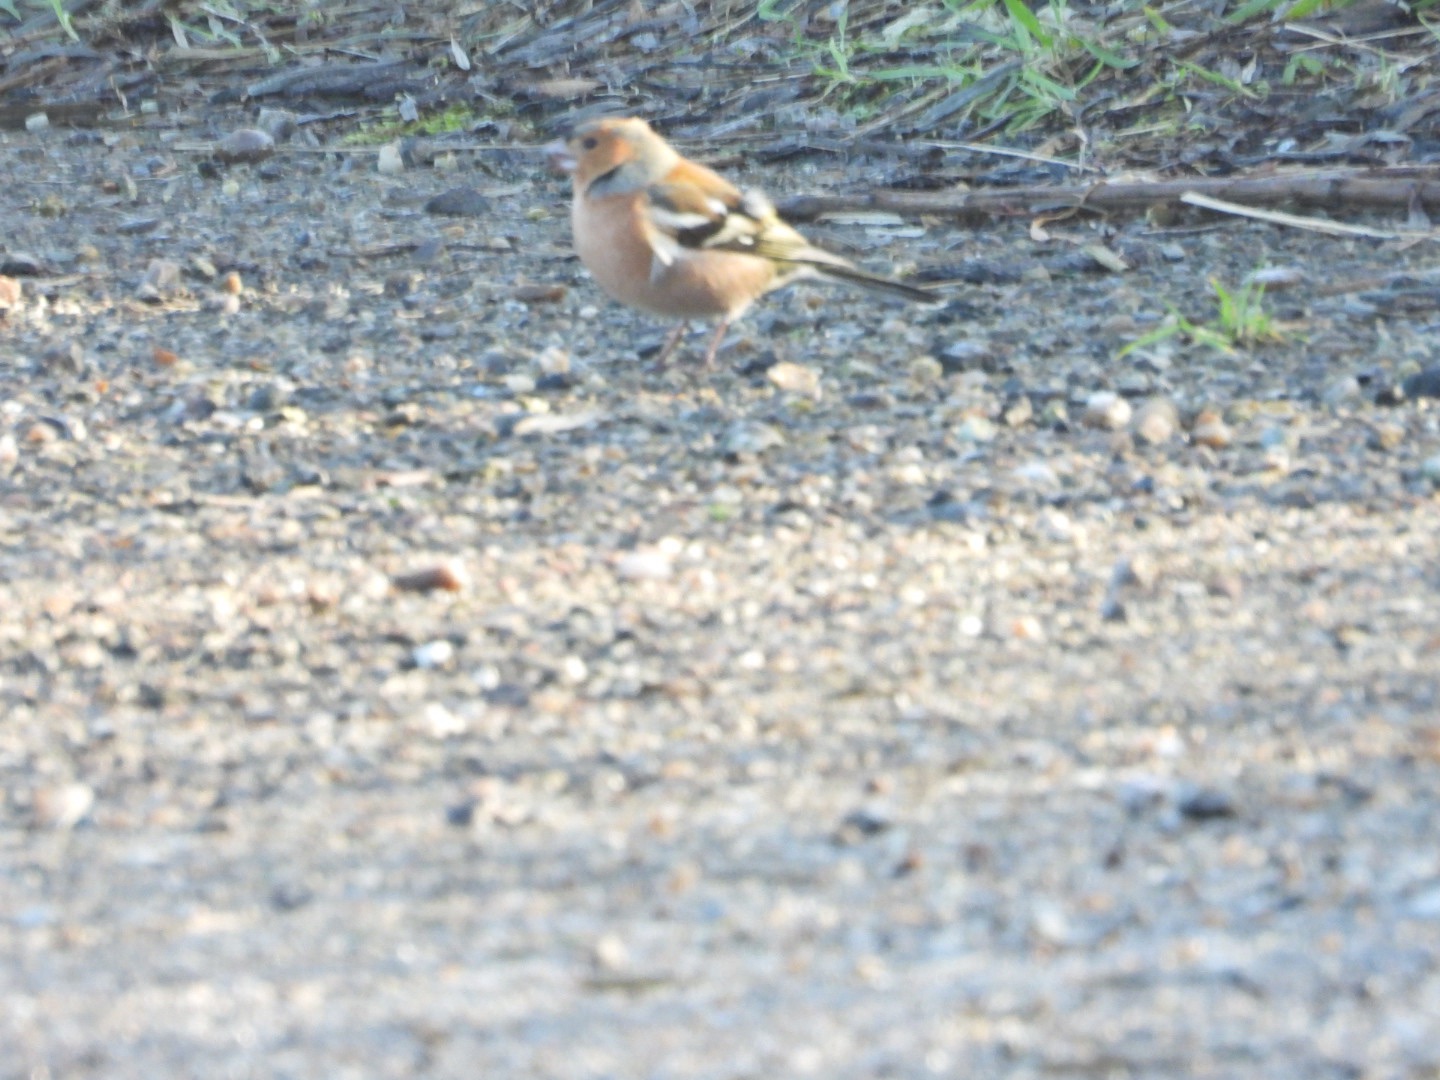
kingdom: Animalia
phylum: Chordata
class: Aves
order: Passeriformes
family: Fringillidae
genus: Fringilla
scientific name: Fringilla coelebs
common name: Bogfinke
